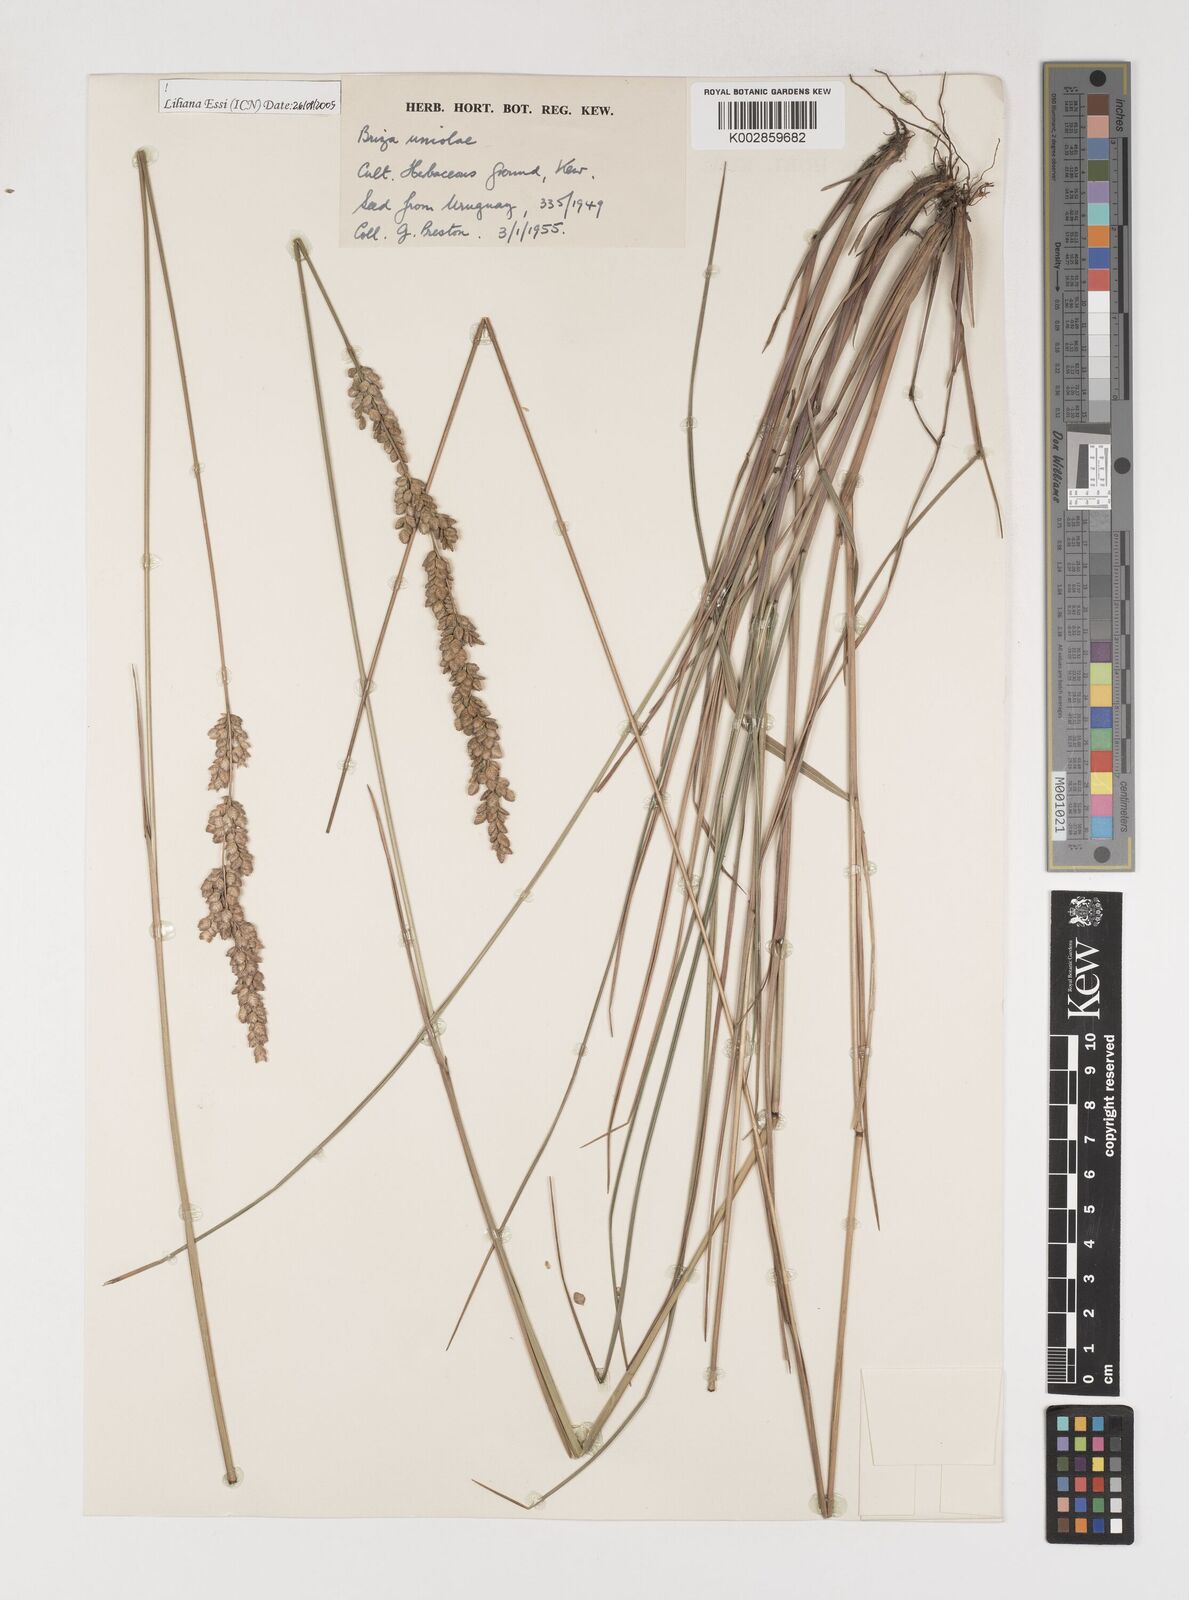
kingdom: Plantae
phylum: Tracheophyta
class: Liliopsida
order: Poales
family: Poaceae
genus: Poidium
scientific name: Poidium uniolae
